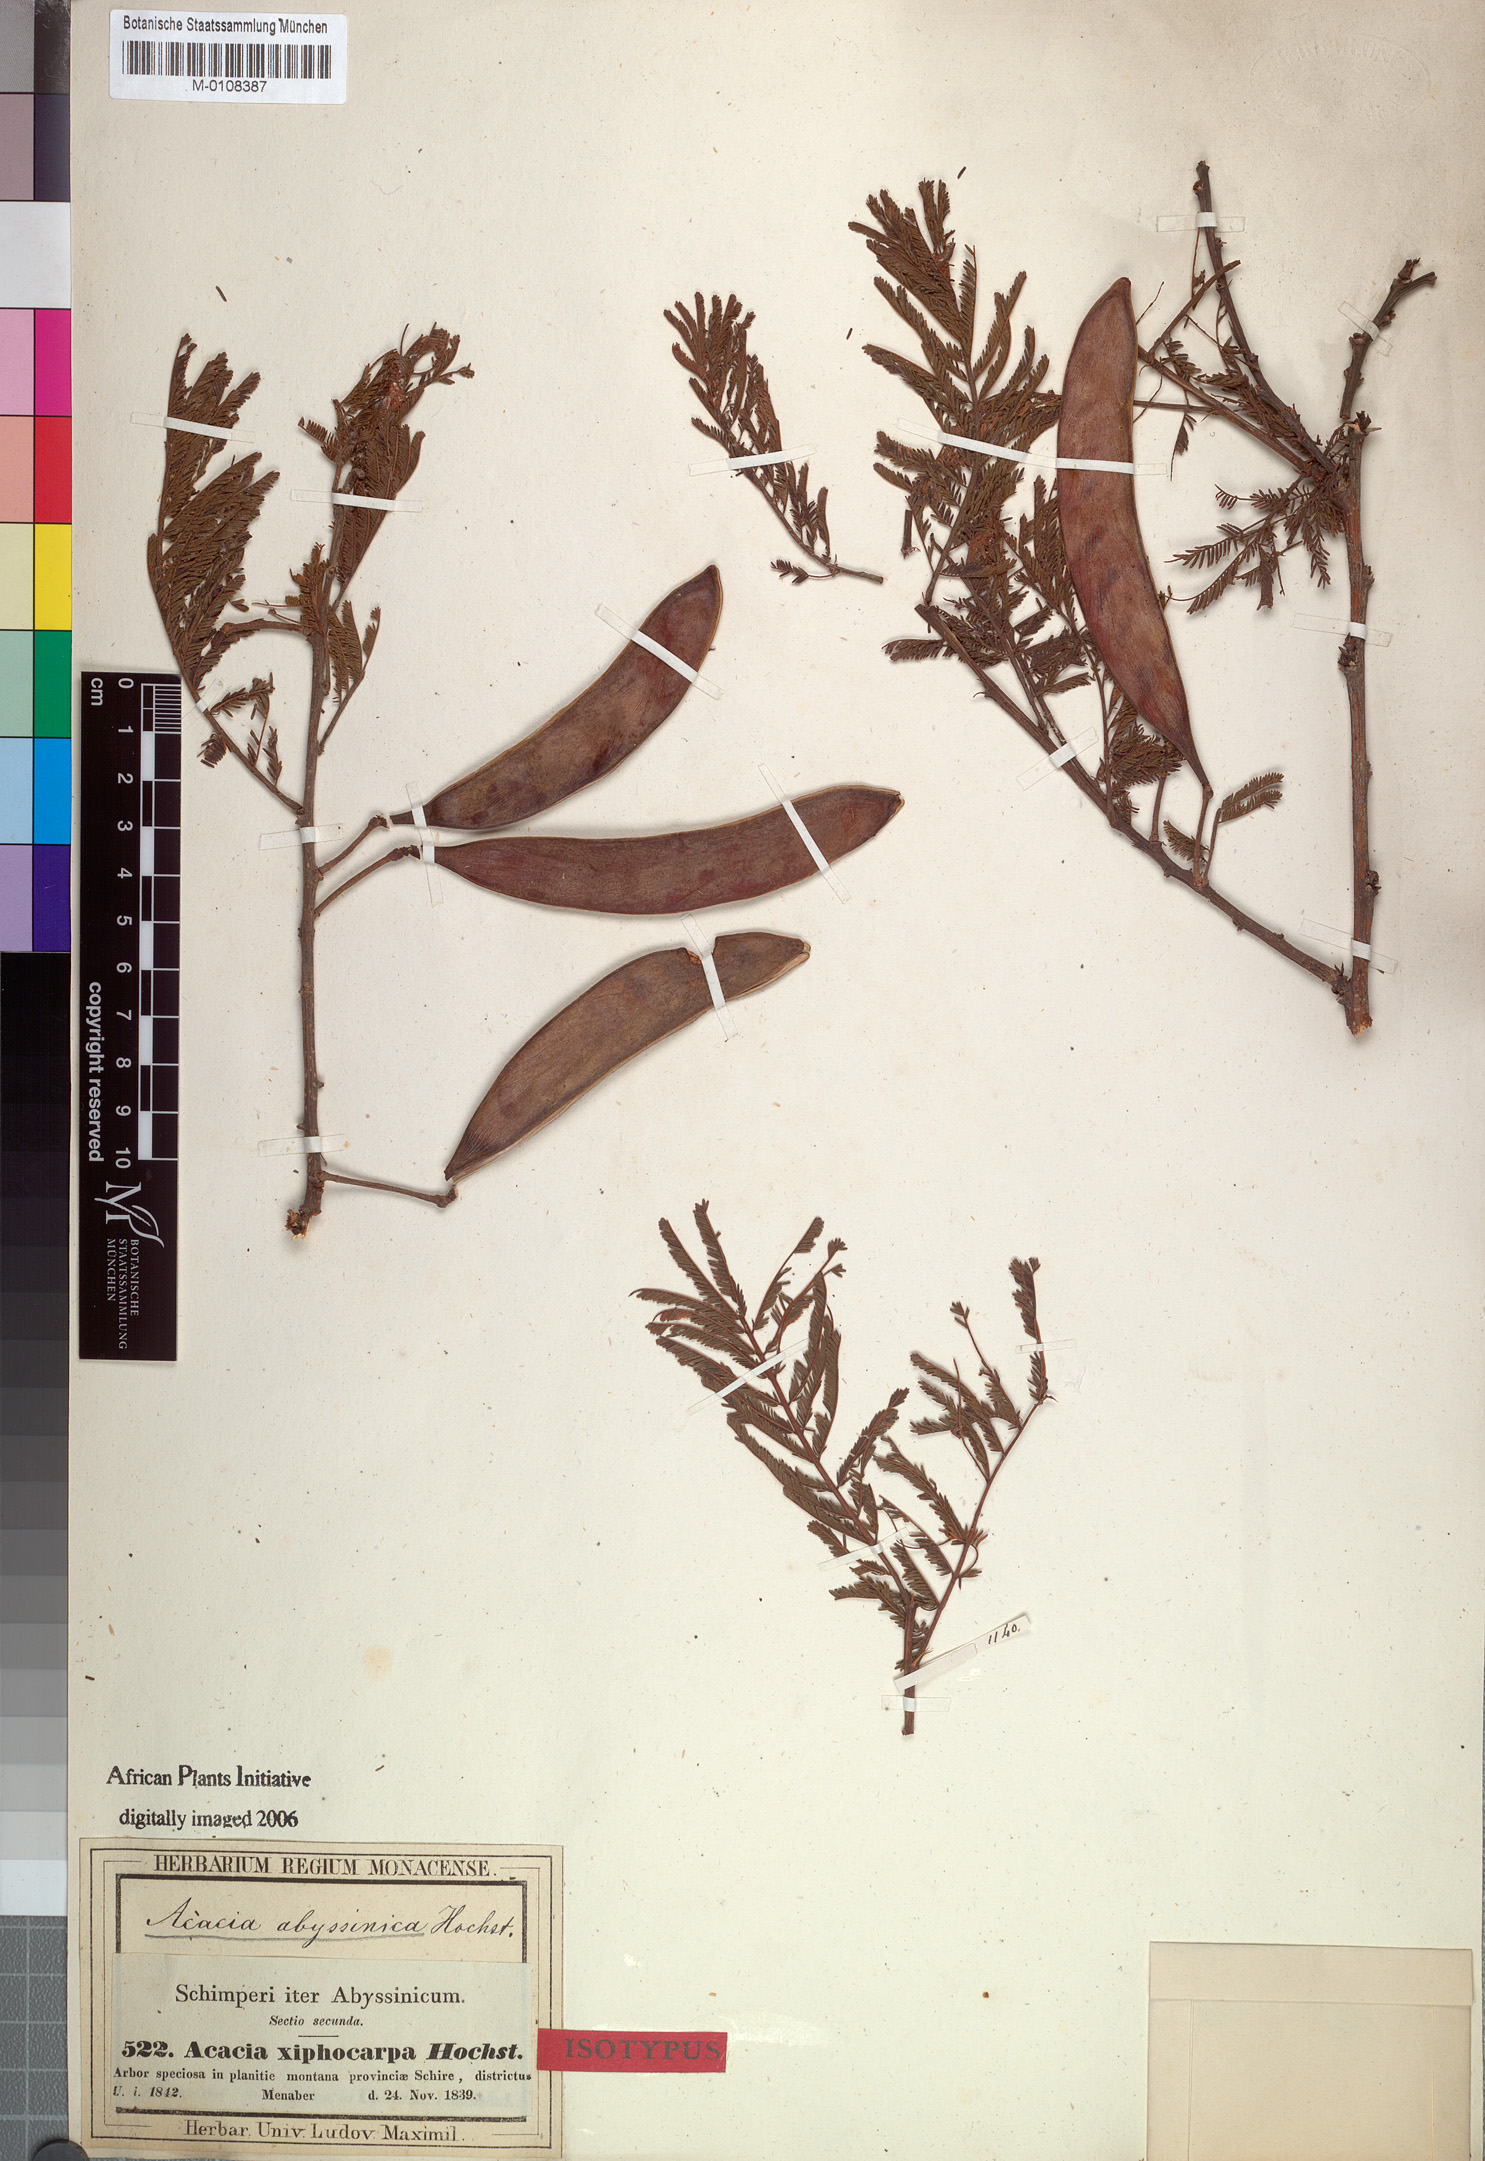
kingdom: Plantae
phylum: Tracheophyta
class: Magnoliopsida
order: Fabales
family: Fabaceae
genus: Vachellia
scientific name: Vachellia abyssinica
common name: Nyanga flat-top
